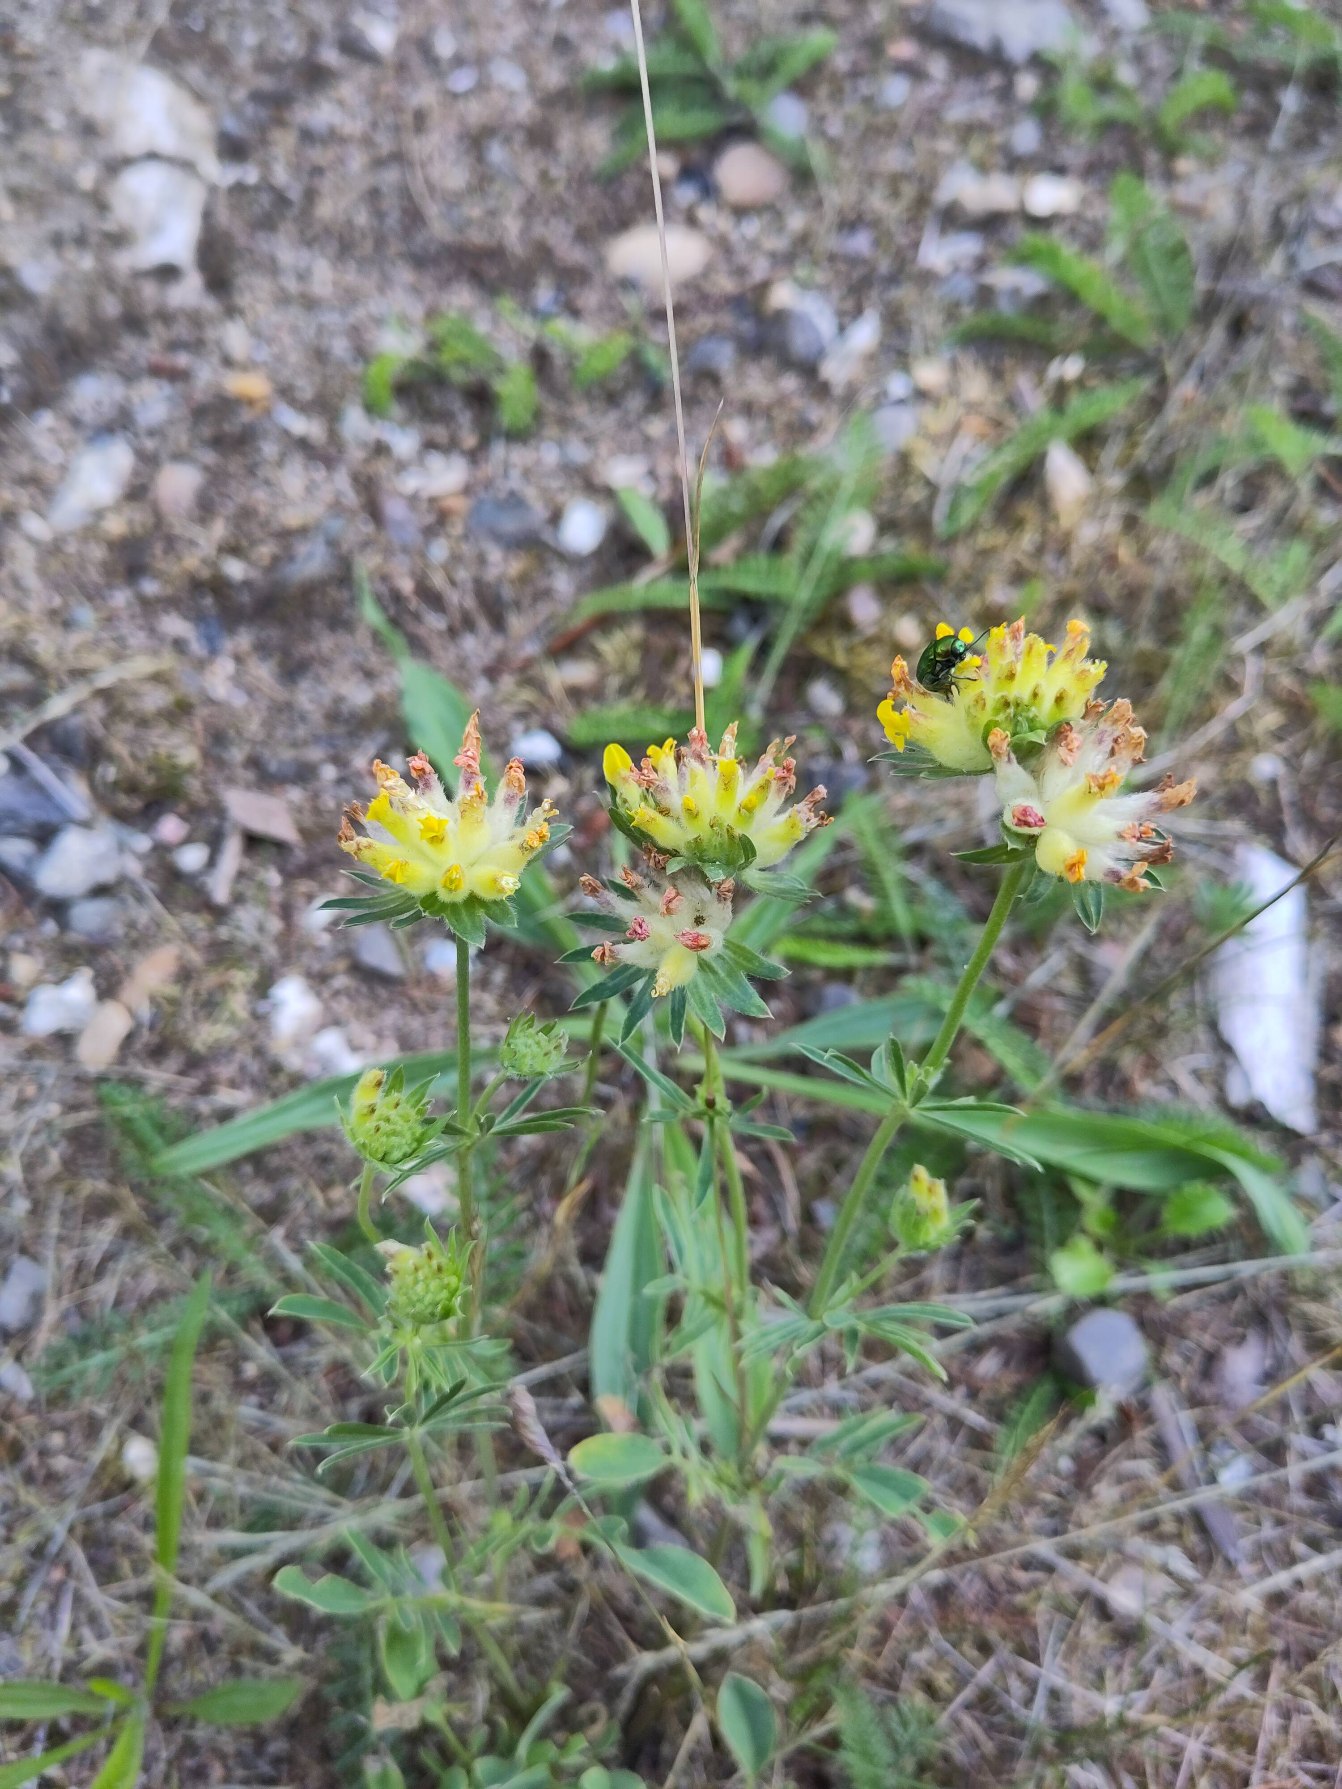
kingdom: Plantae
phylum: Tracheophyta
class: Magnoliopsida
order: Fabales
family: Fabaceae
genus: Anthyllis
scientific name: Anthyllis vulneraria
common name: Rundbælg
